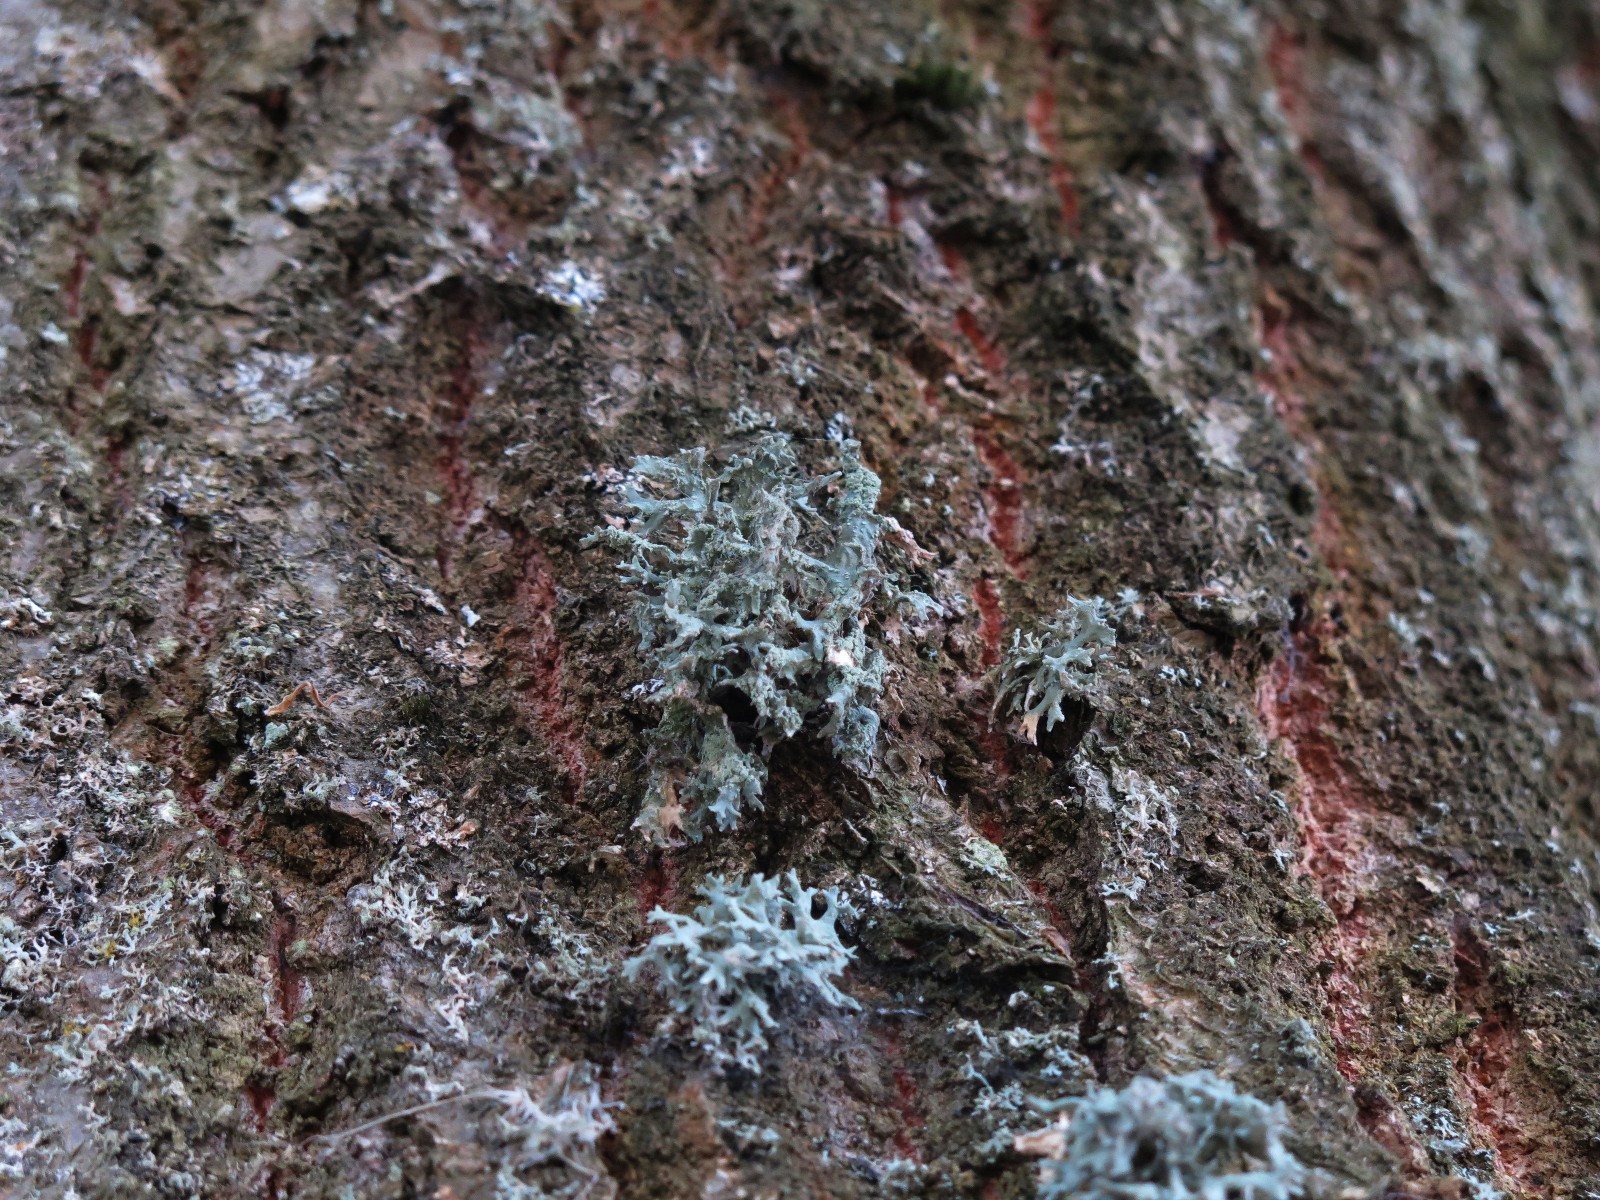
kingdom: Fungi
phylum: Ascomycota
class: Lecanoromycetes
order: Lecanorales
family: Parmeliaceae
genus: Evernia
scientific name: Evernia prunastri
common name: almindelig slåenlav
